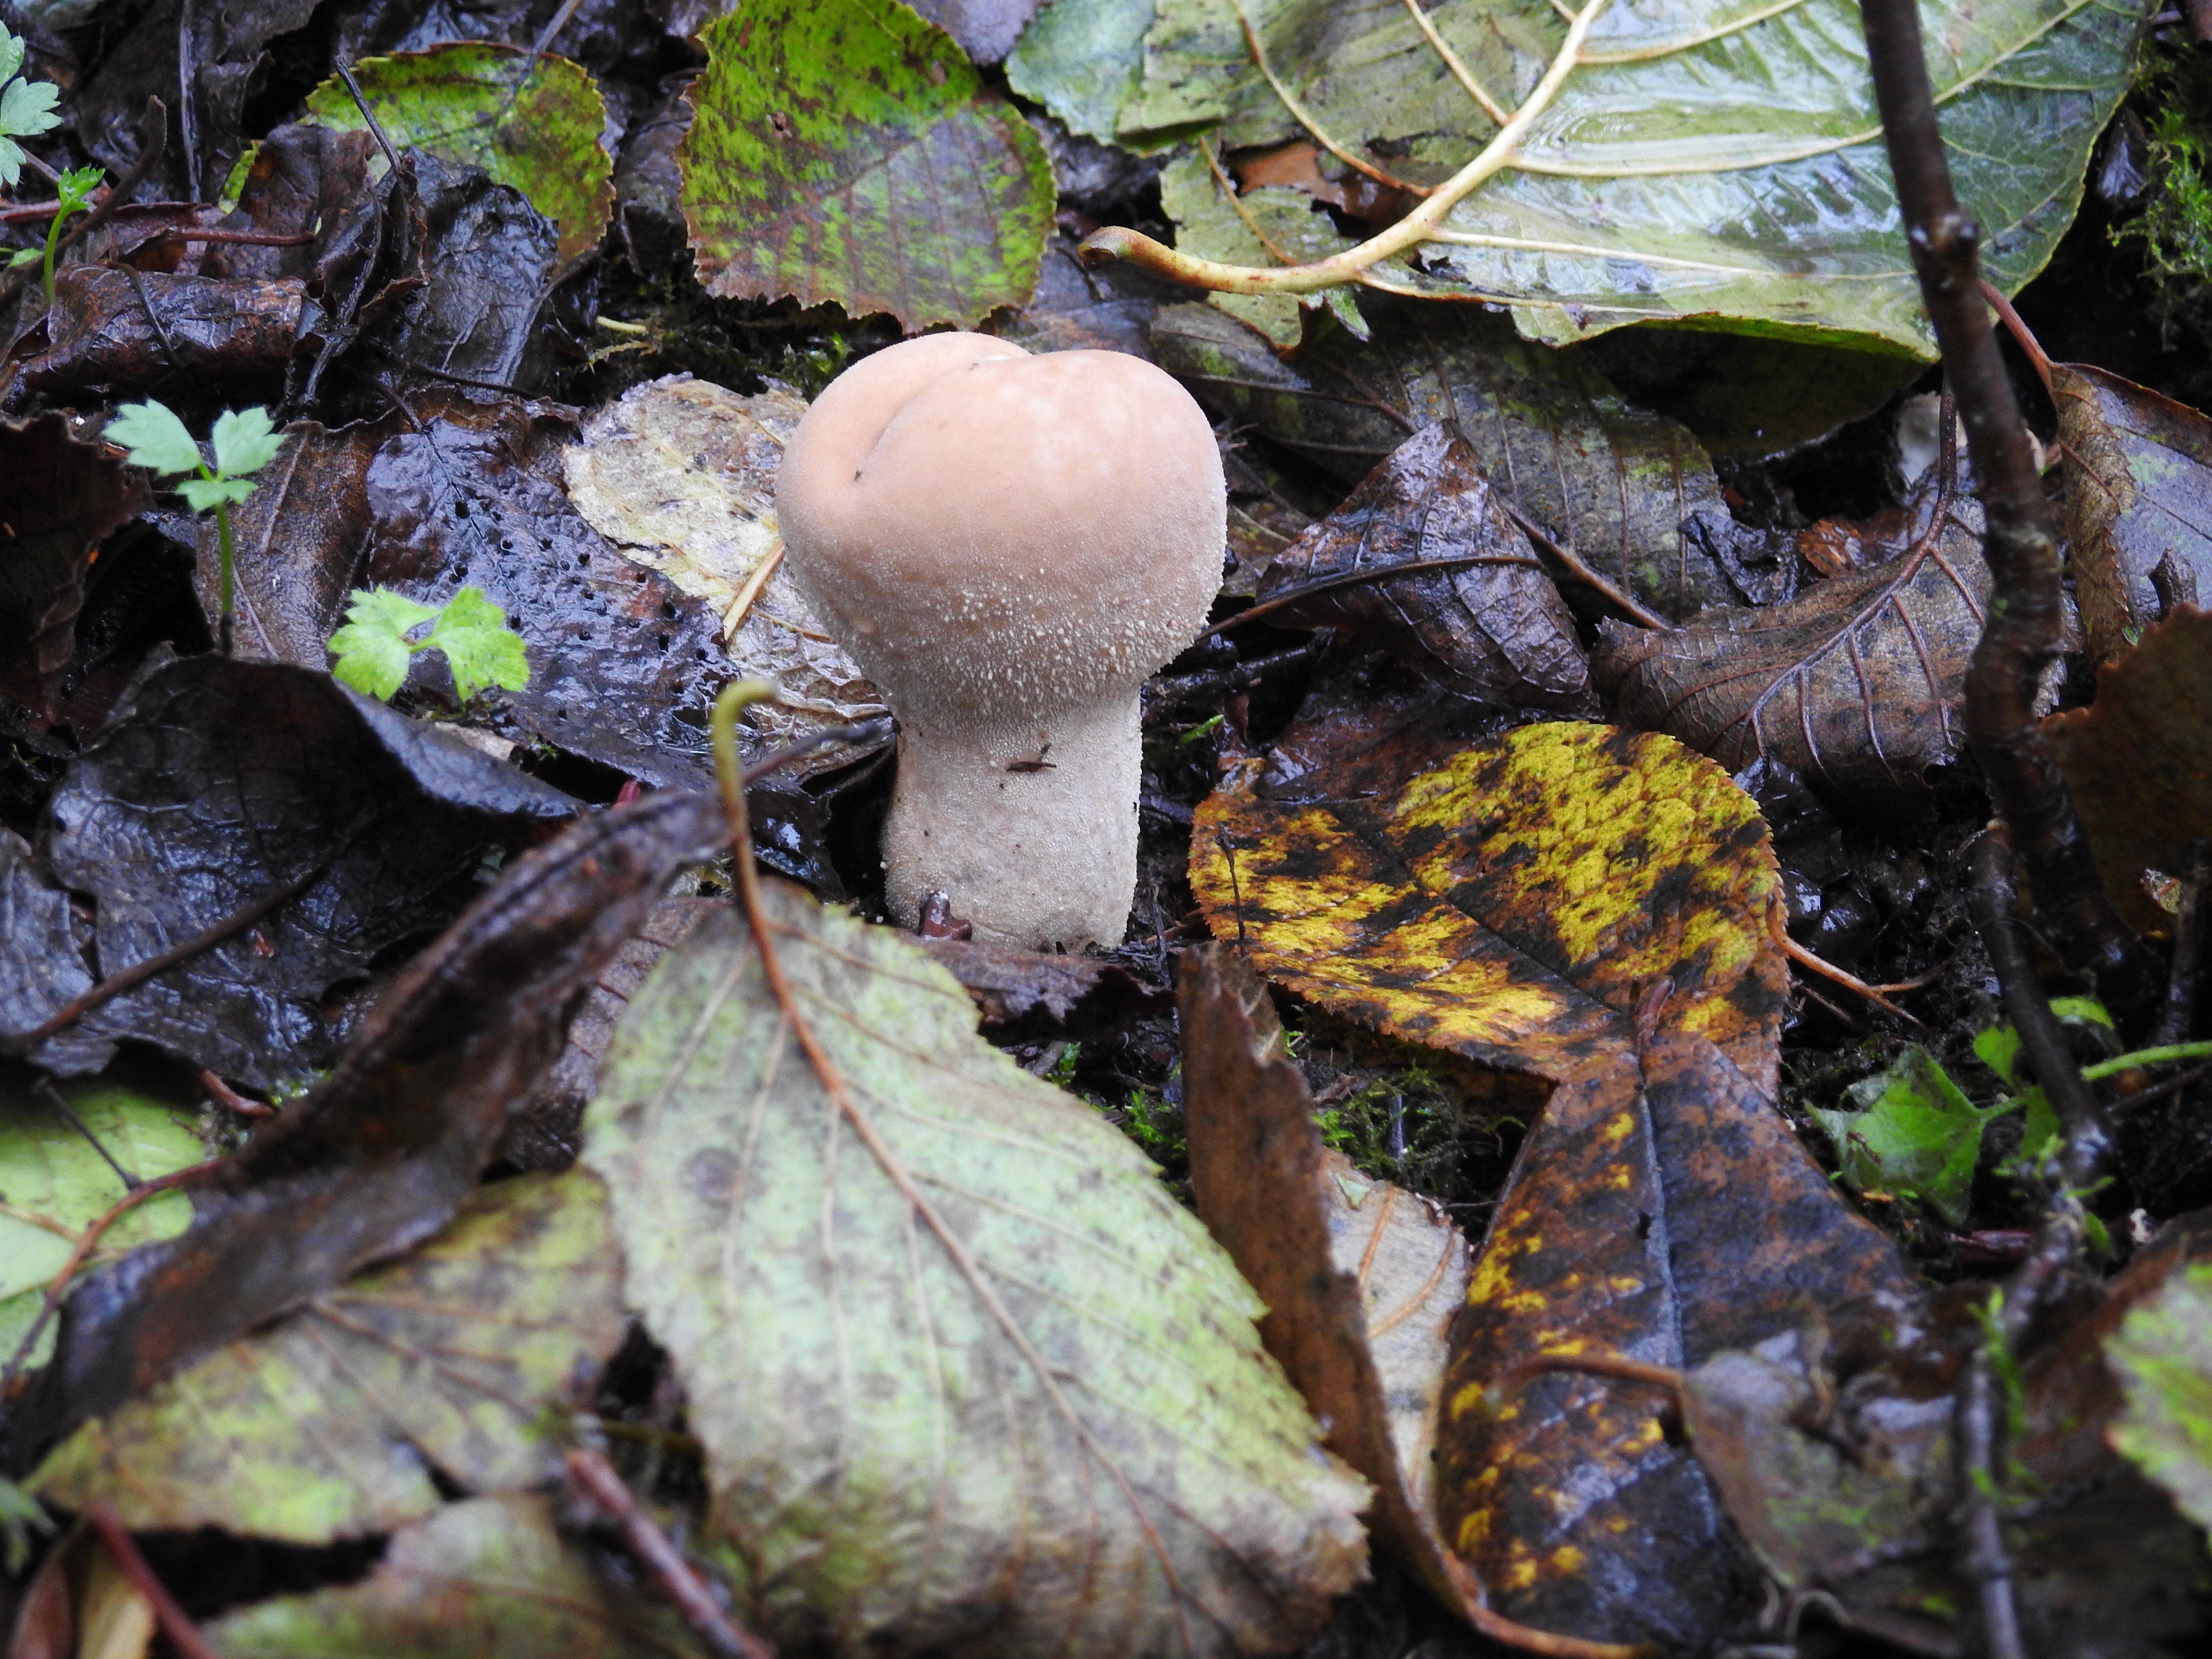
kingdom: Fungi
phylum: Basidiomycota
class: Agaricomycetes
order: Agaricales
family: Agaricaceae
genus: Lycoperdon
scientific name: Lycoperdon excipuliforme
